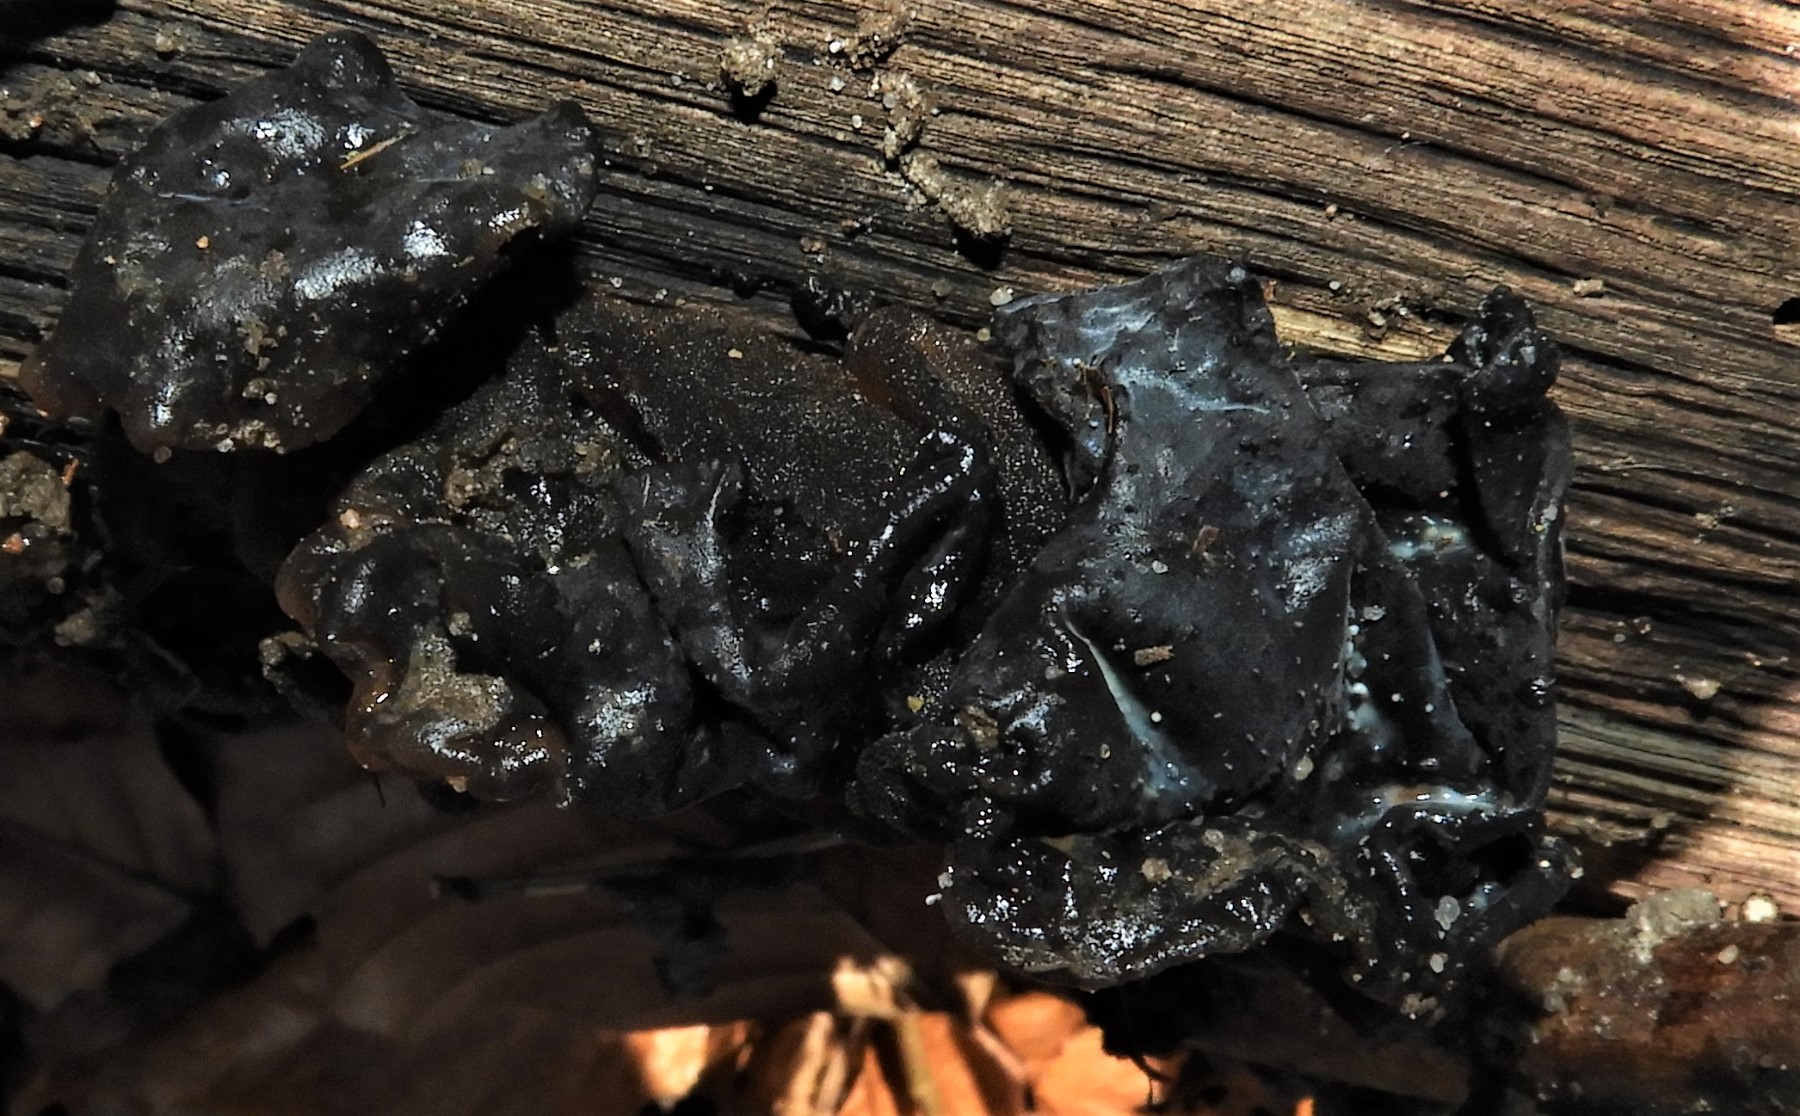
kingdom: Fungi
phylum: Basidiomycota
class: Agaricomycetes
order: Auriculariales
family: Auriculariaceae
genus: Exidia
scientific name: Exidia glandulosa
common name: ege-bævretop
